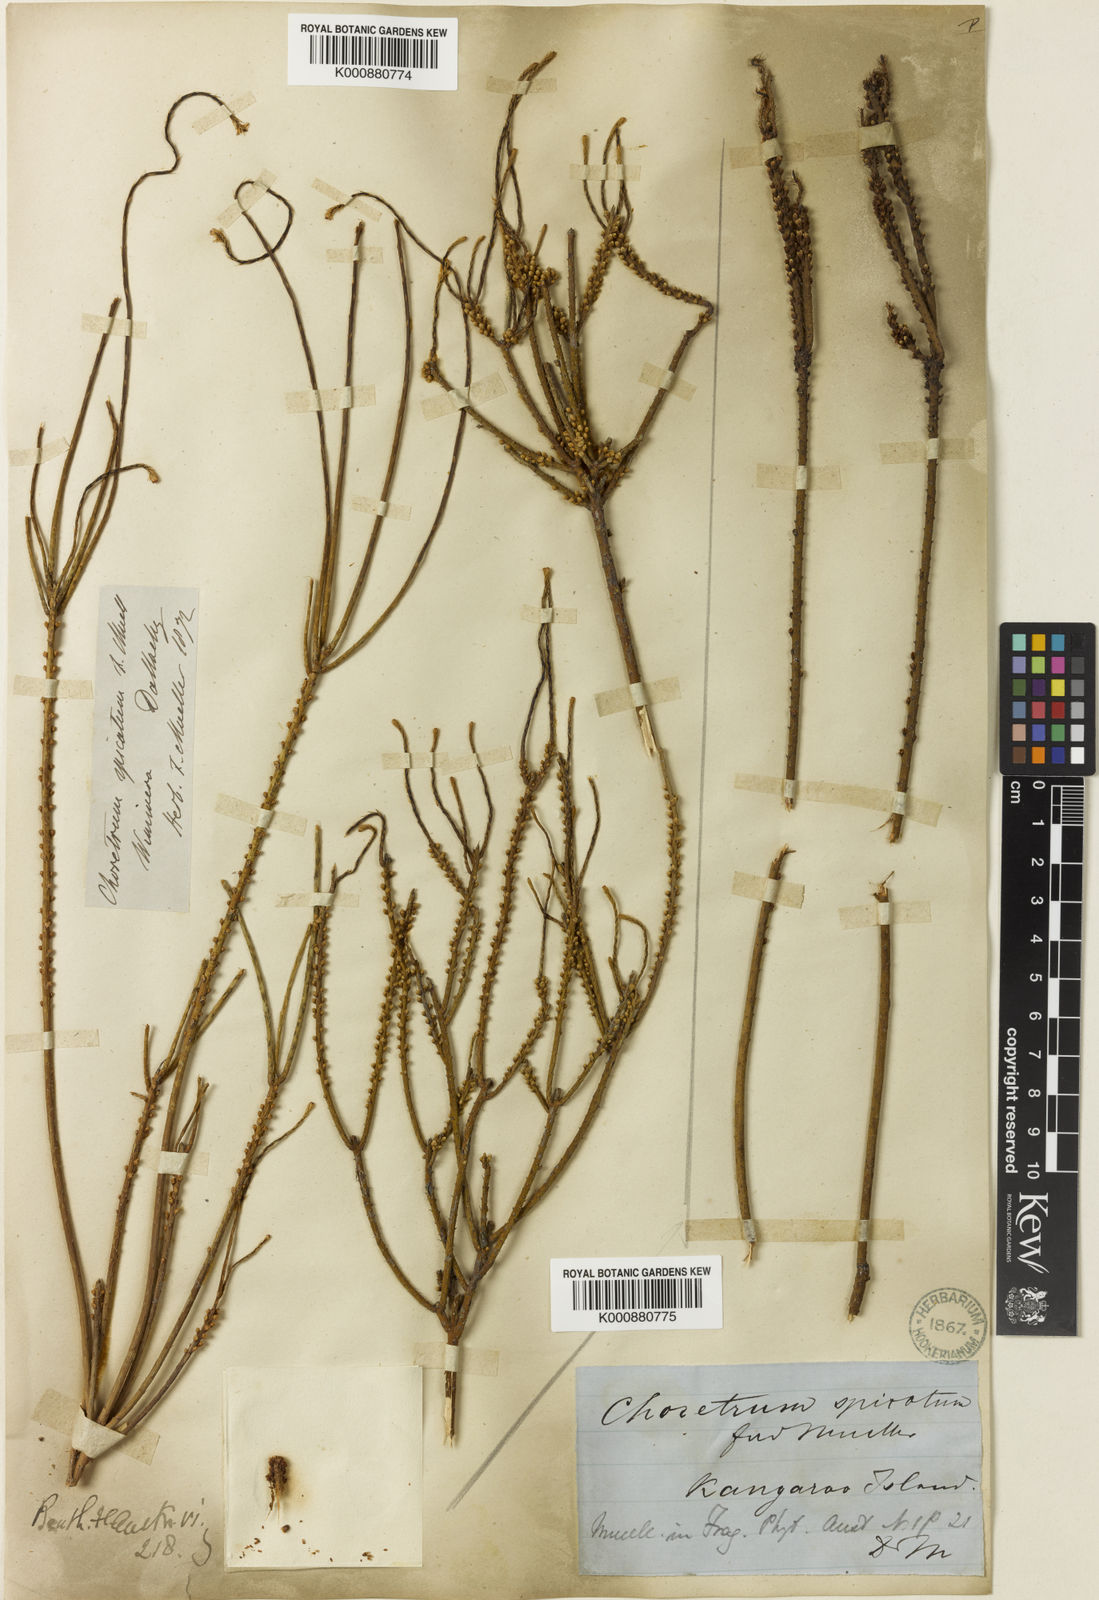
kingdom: Plantae
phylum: Tracheophyta
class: Magnoliopsida
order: Santalales
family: Amphorogynaceae
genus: Choretrum
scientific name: Choretrum spicatum
